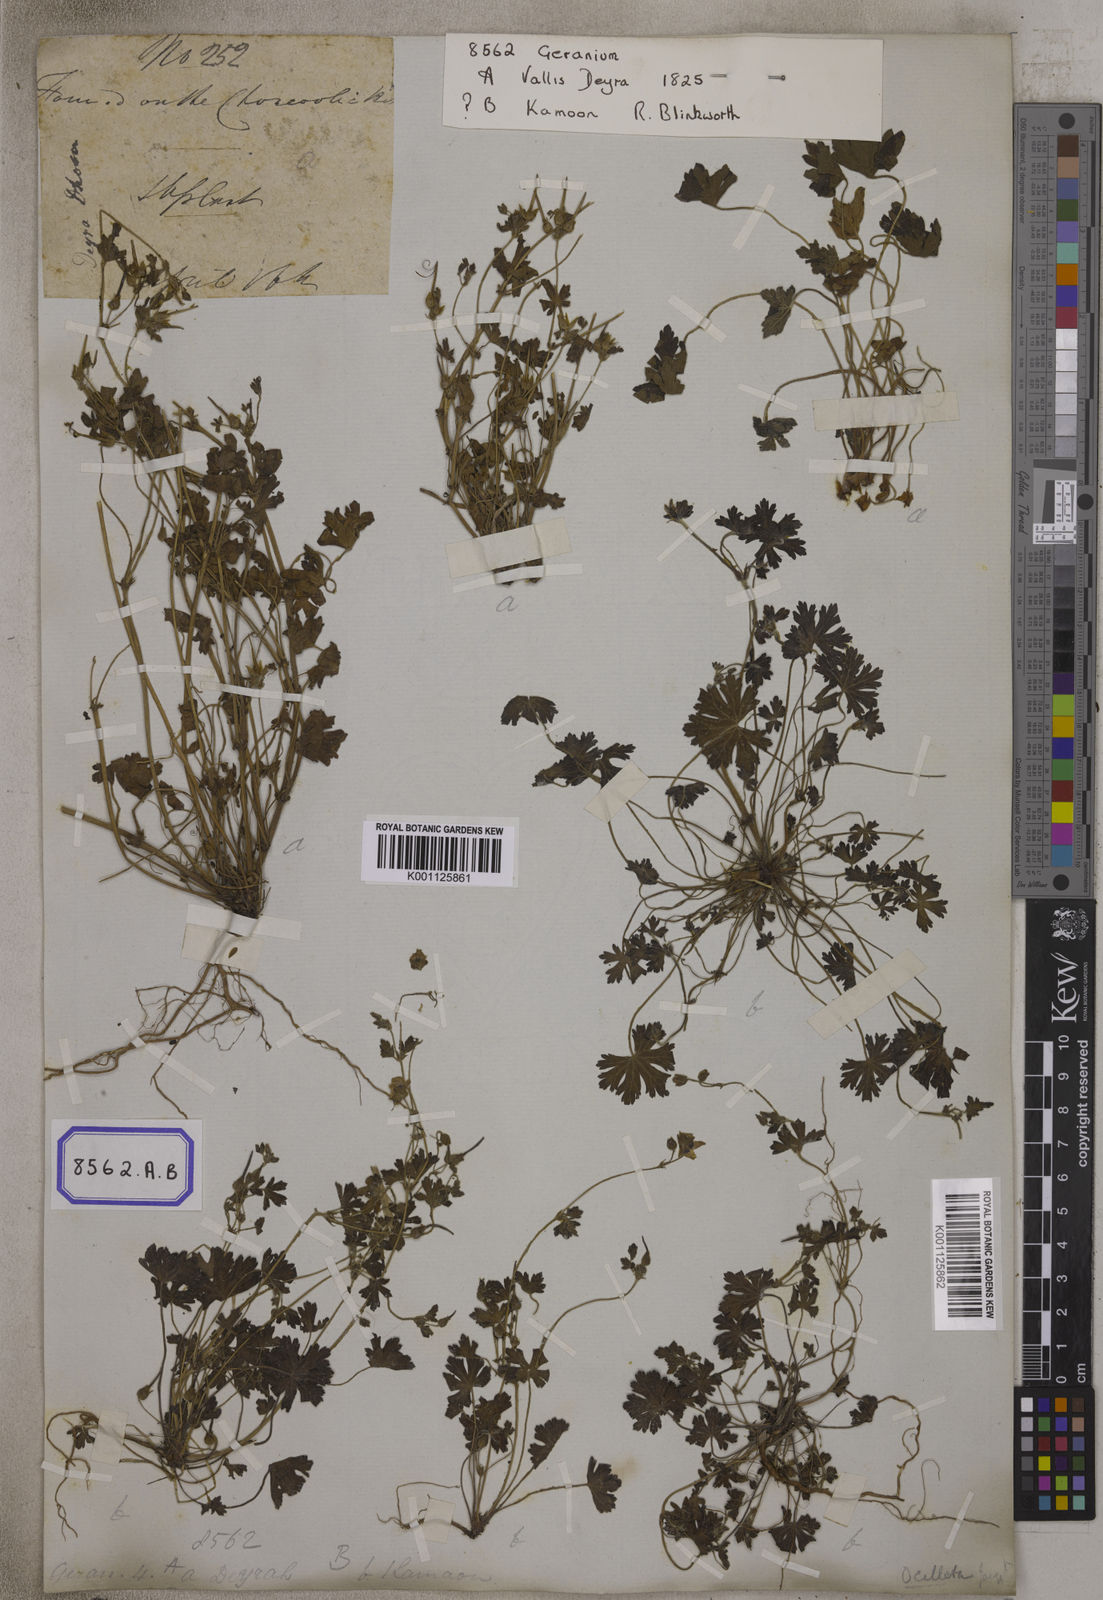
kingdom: Plantae
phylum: Tracheophyta
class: Magnoliopsida
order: Geraniales
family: Geraniaceae
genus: Geranium
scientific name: Geranium
